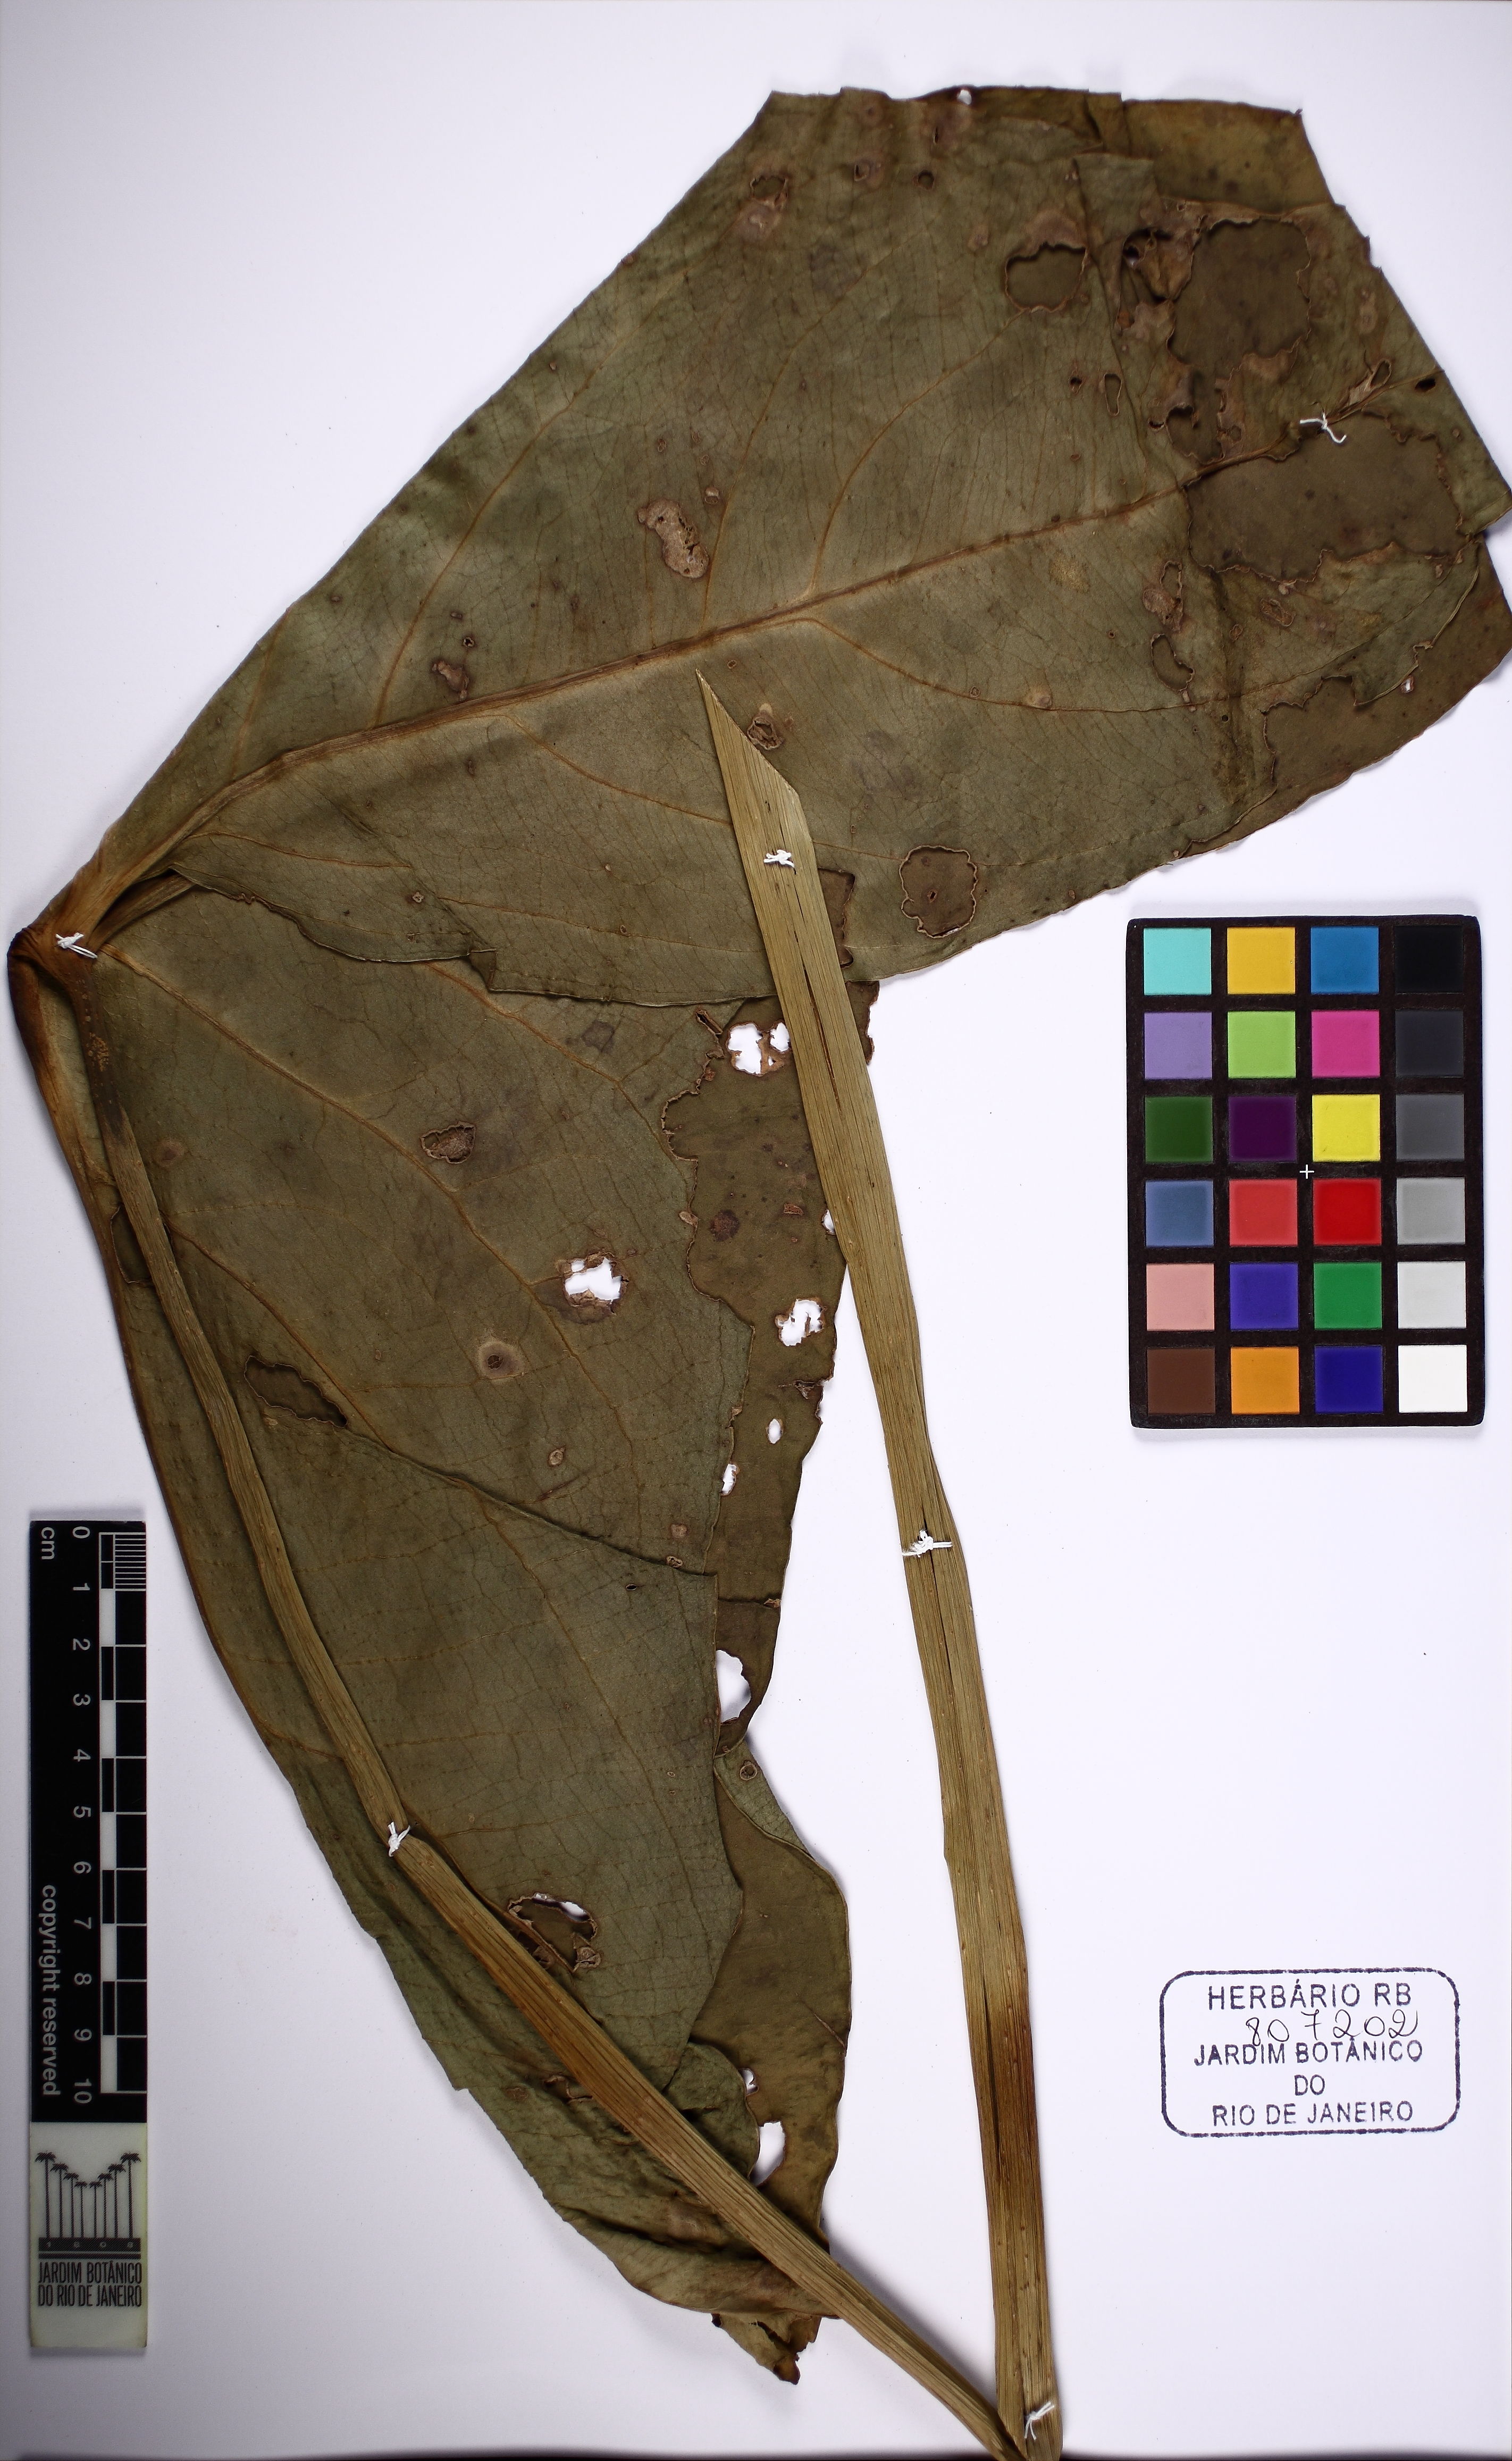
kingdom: Plantae
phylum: Tracheophyta
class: Liliopsida
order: Alismatales
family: Araceae
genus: Urospatha
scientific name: Urospatha sagittifolia
